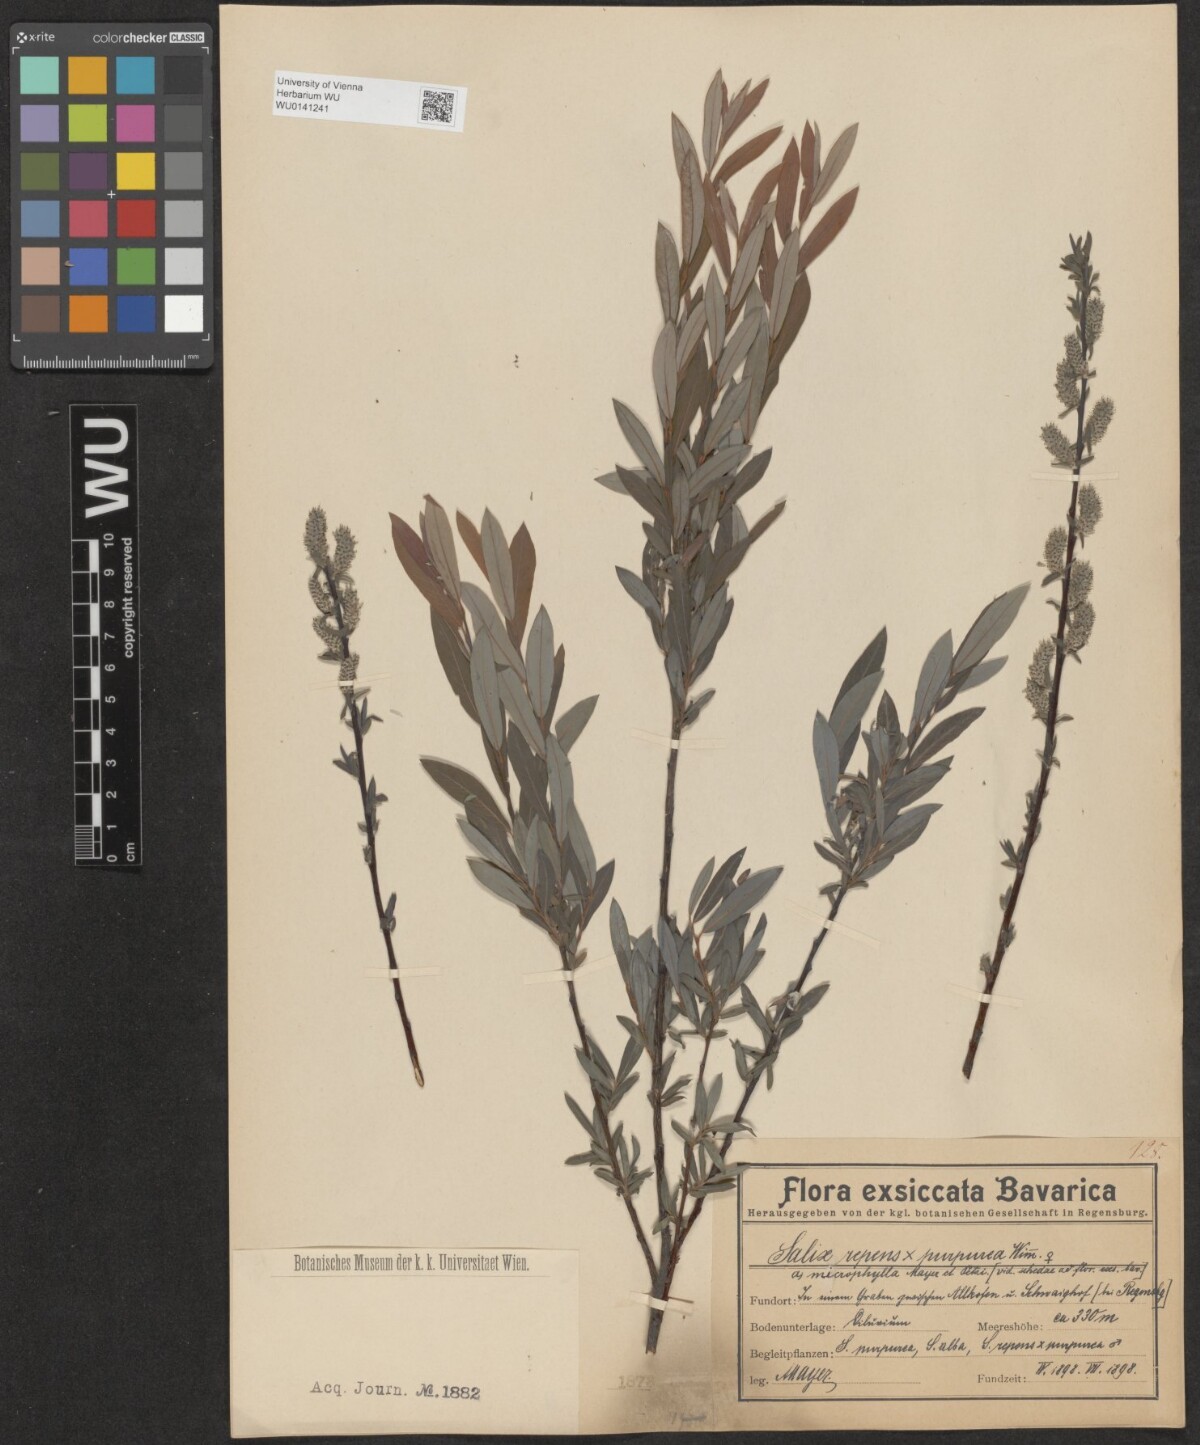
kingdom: Plantae
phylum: Tracheophyta
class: Magnoliopsida
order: Malpighiales
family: Salicaceae
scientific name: Salicaceae
